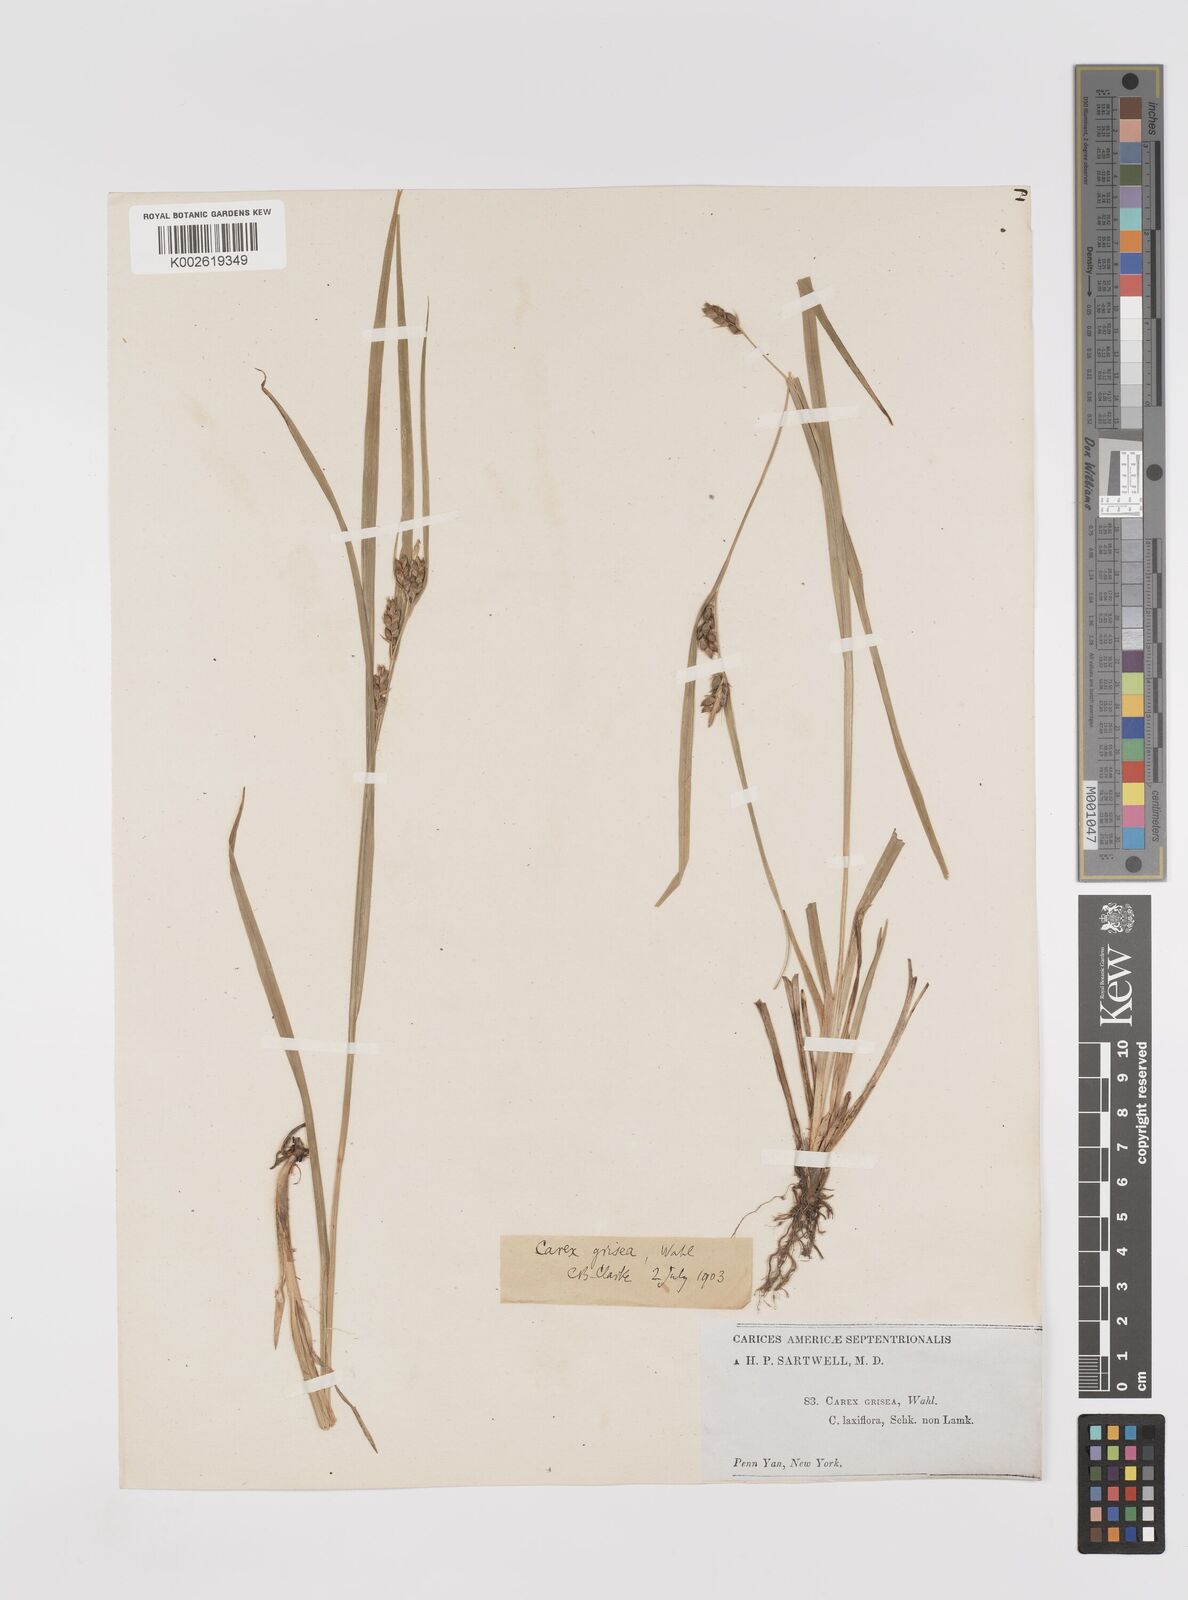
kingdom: Plantae
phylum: Tracheophyta
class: Liliopsida
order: Poales
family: Cyperaceae
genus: Carex
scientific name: Carex grisea
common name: Eastern narrow-leaved sedge
